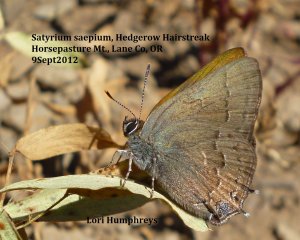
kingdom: Animalia
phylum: Arthropoda
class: Insecta
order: Lepidoptera
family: Lycaenidae
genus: Strymon
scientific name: Strymon saepium
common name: Hedgerow Hairstreak
